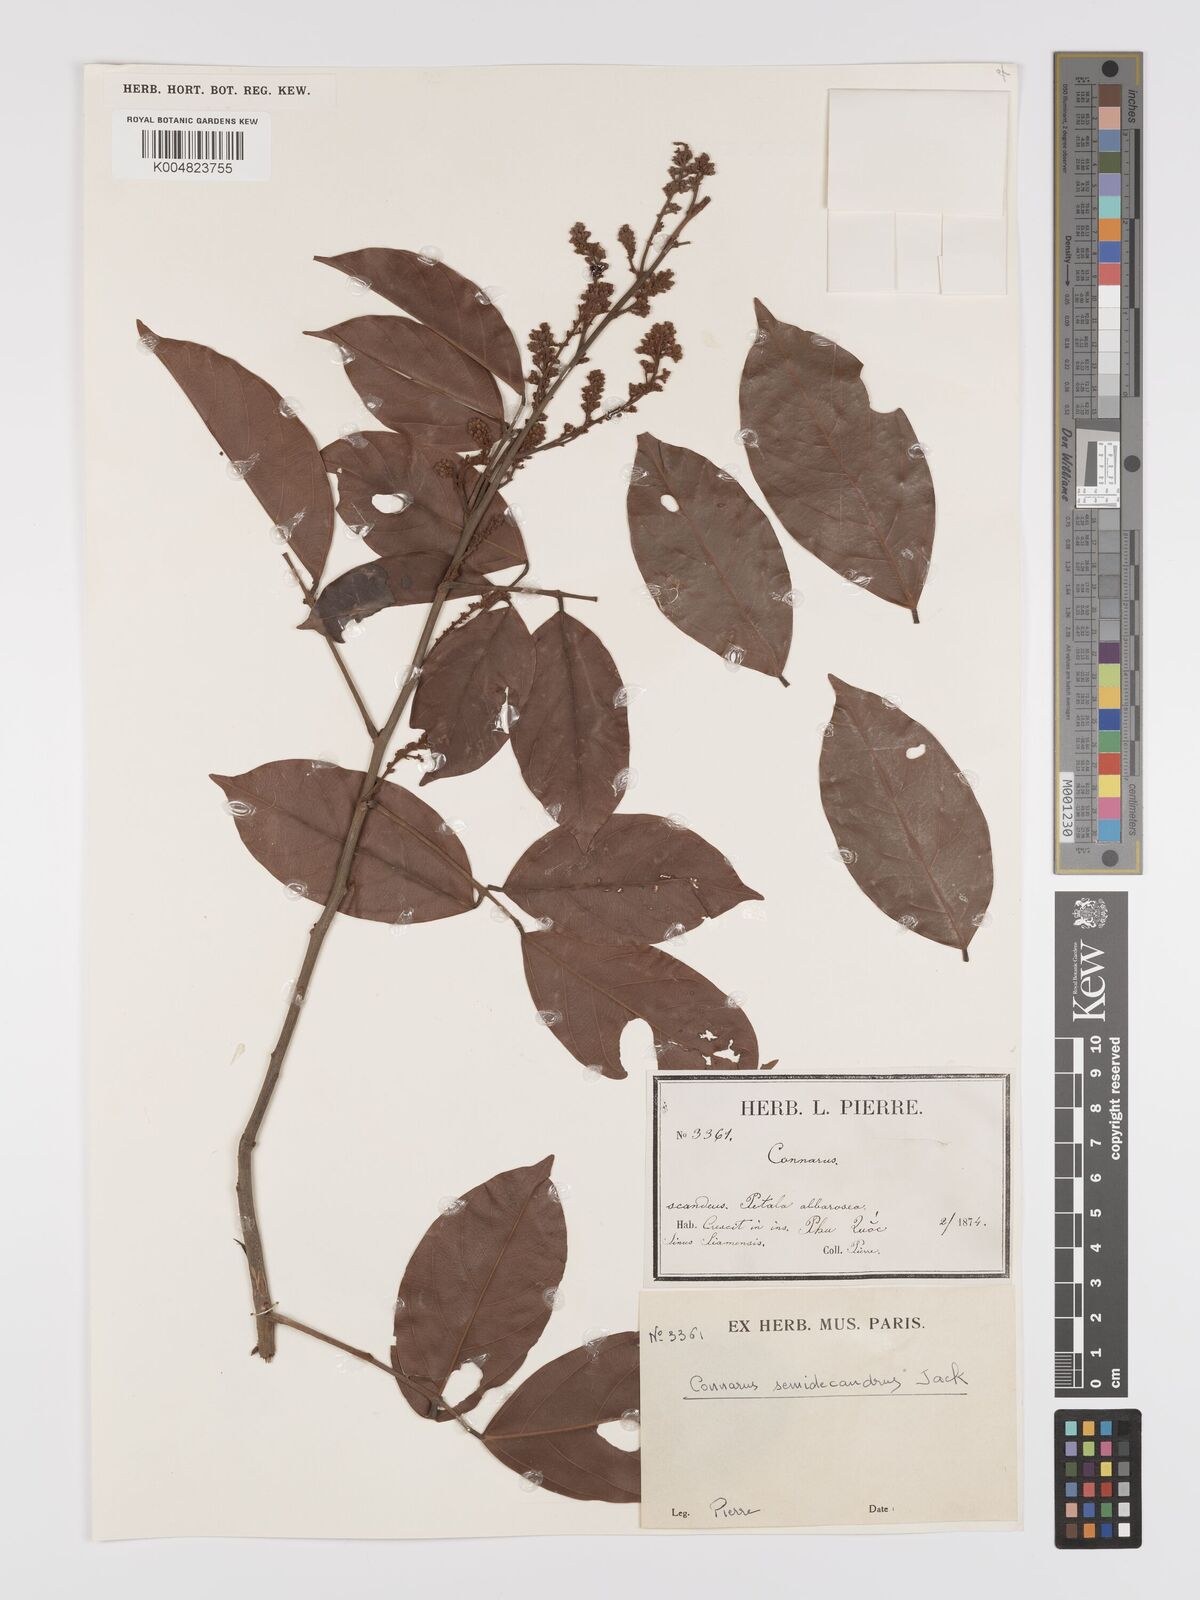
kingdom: Plantae
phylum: Tracheophyta
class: Magnoliopsida
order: Oxalidales
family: Connaraceae
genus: Connarus
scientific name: Connarus semidecandrus
